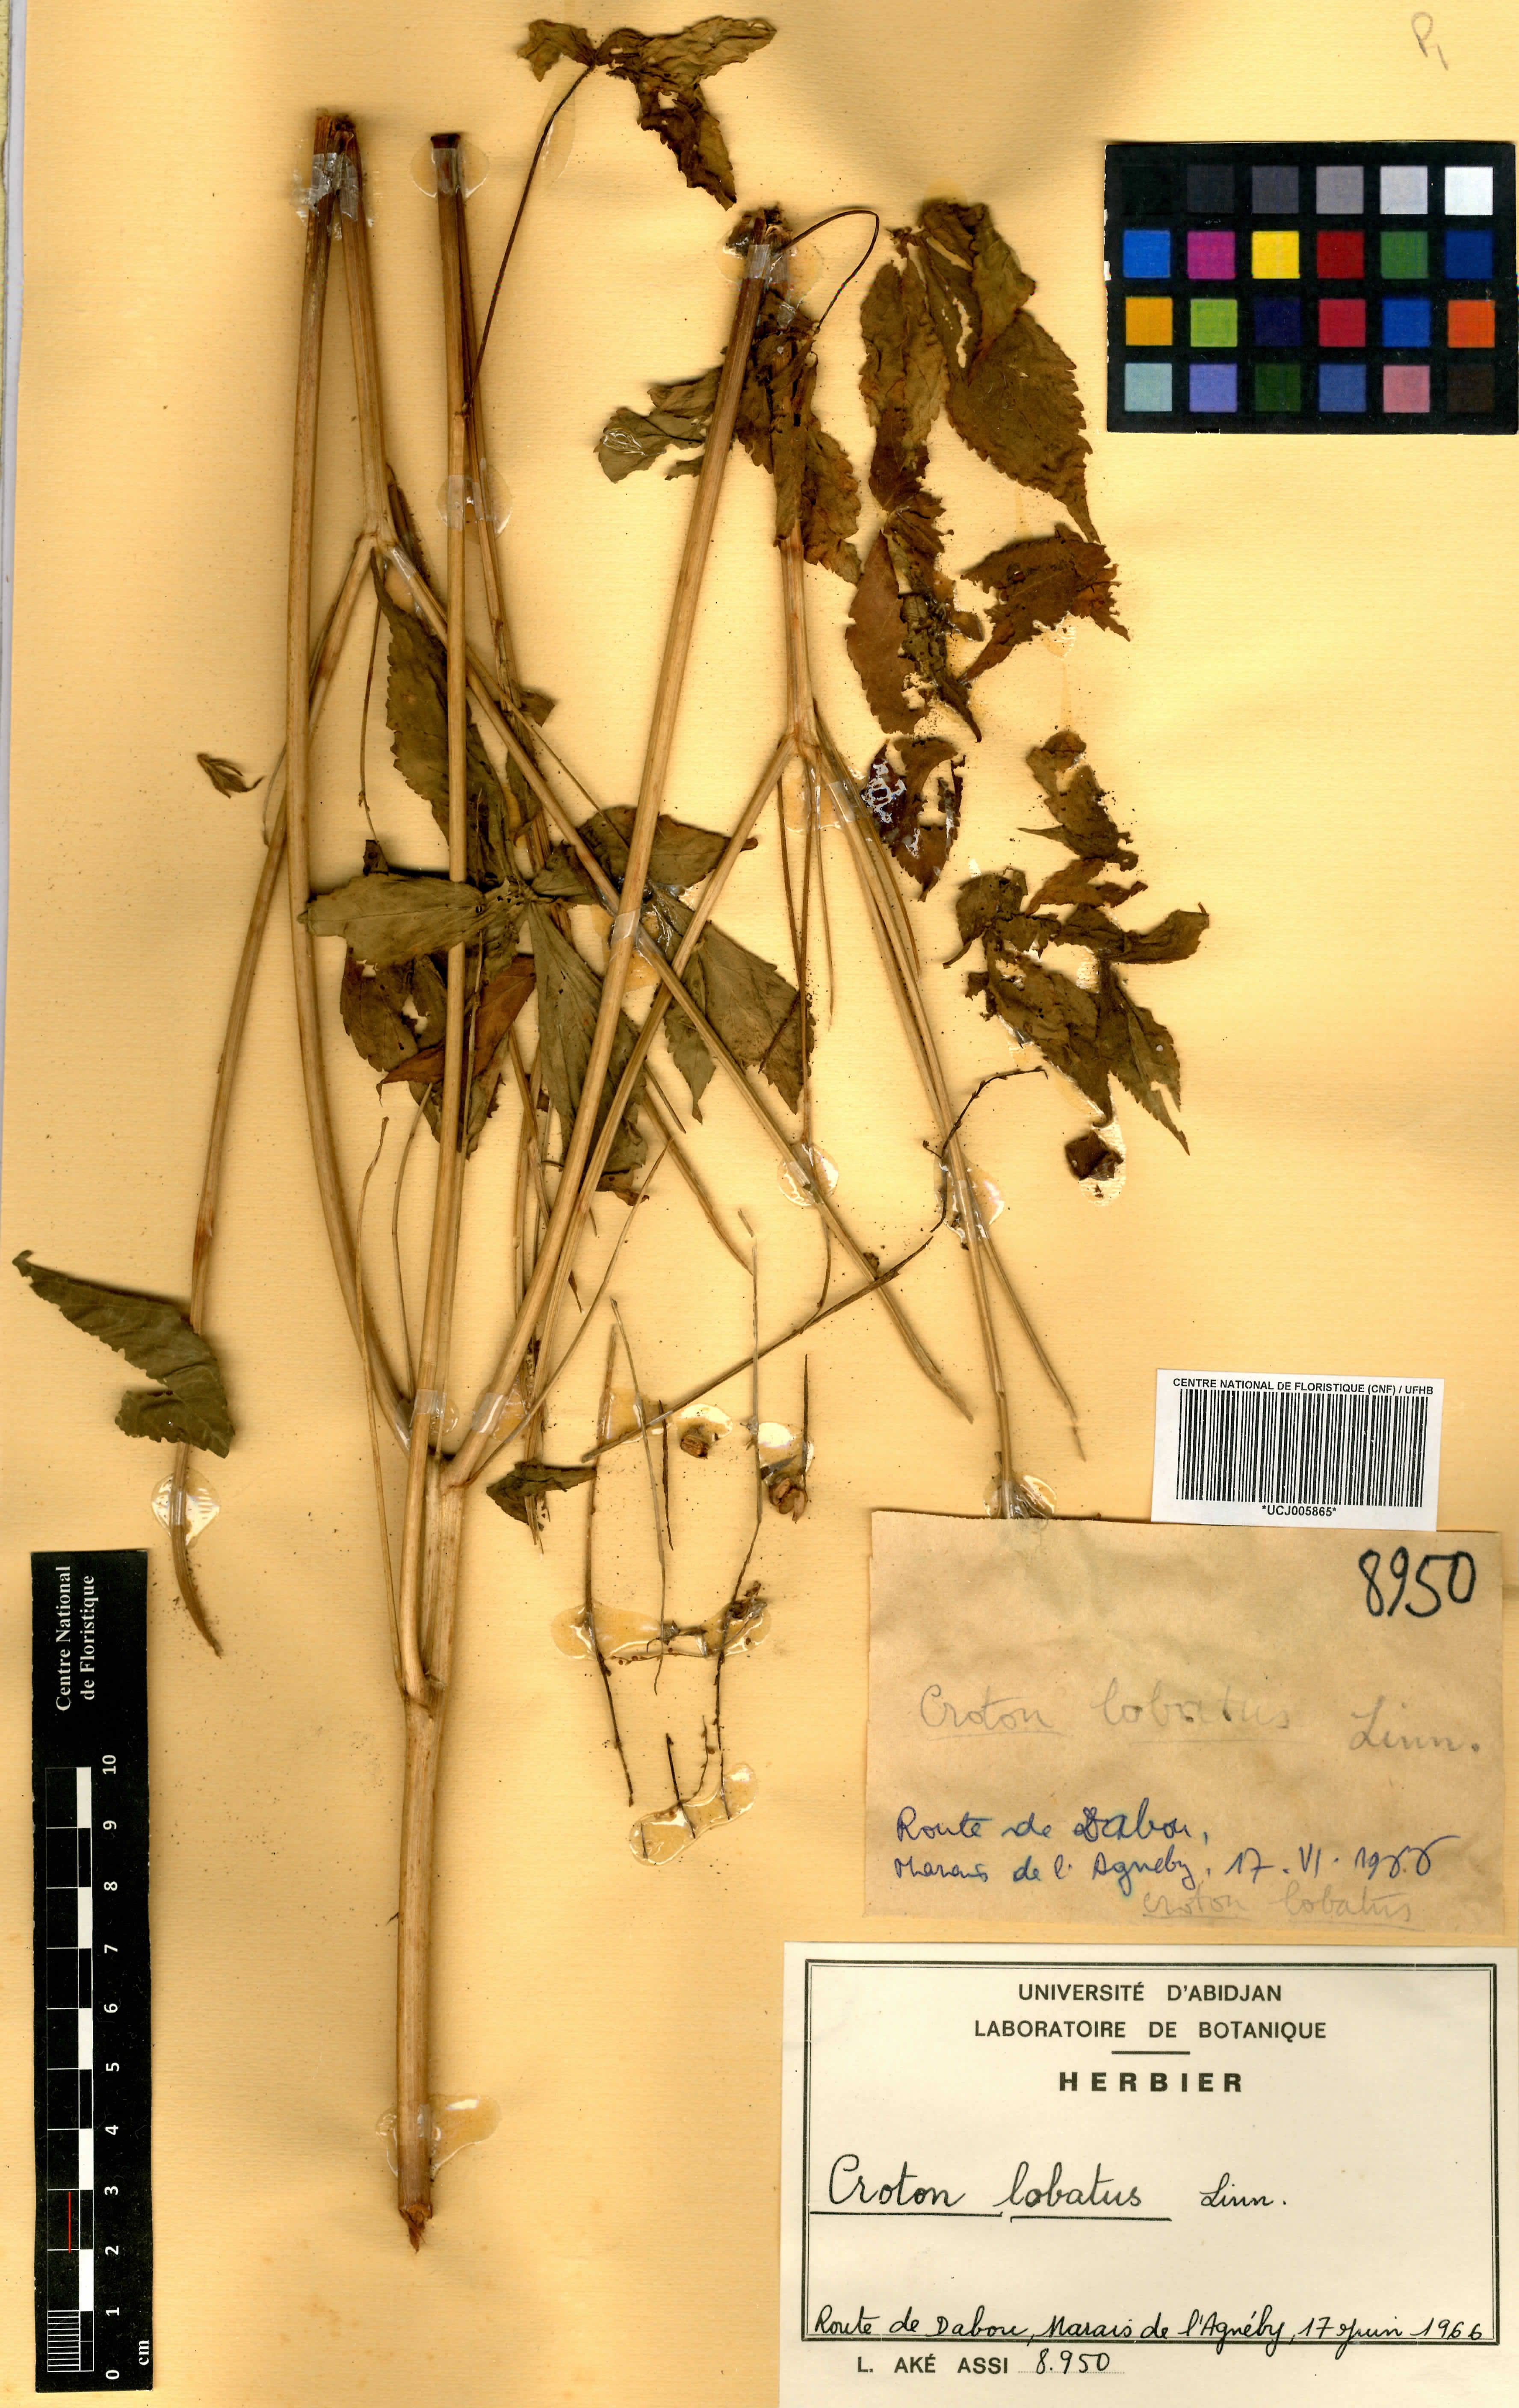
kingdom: Plantae
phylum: Tracheophyta
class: Magnoliopsida
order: Malpighiales
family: Euphorbiaceae
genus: Astraea
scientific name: Astraea lobata
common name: Lobed croton
